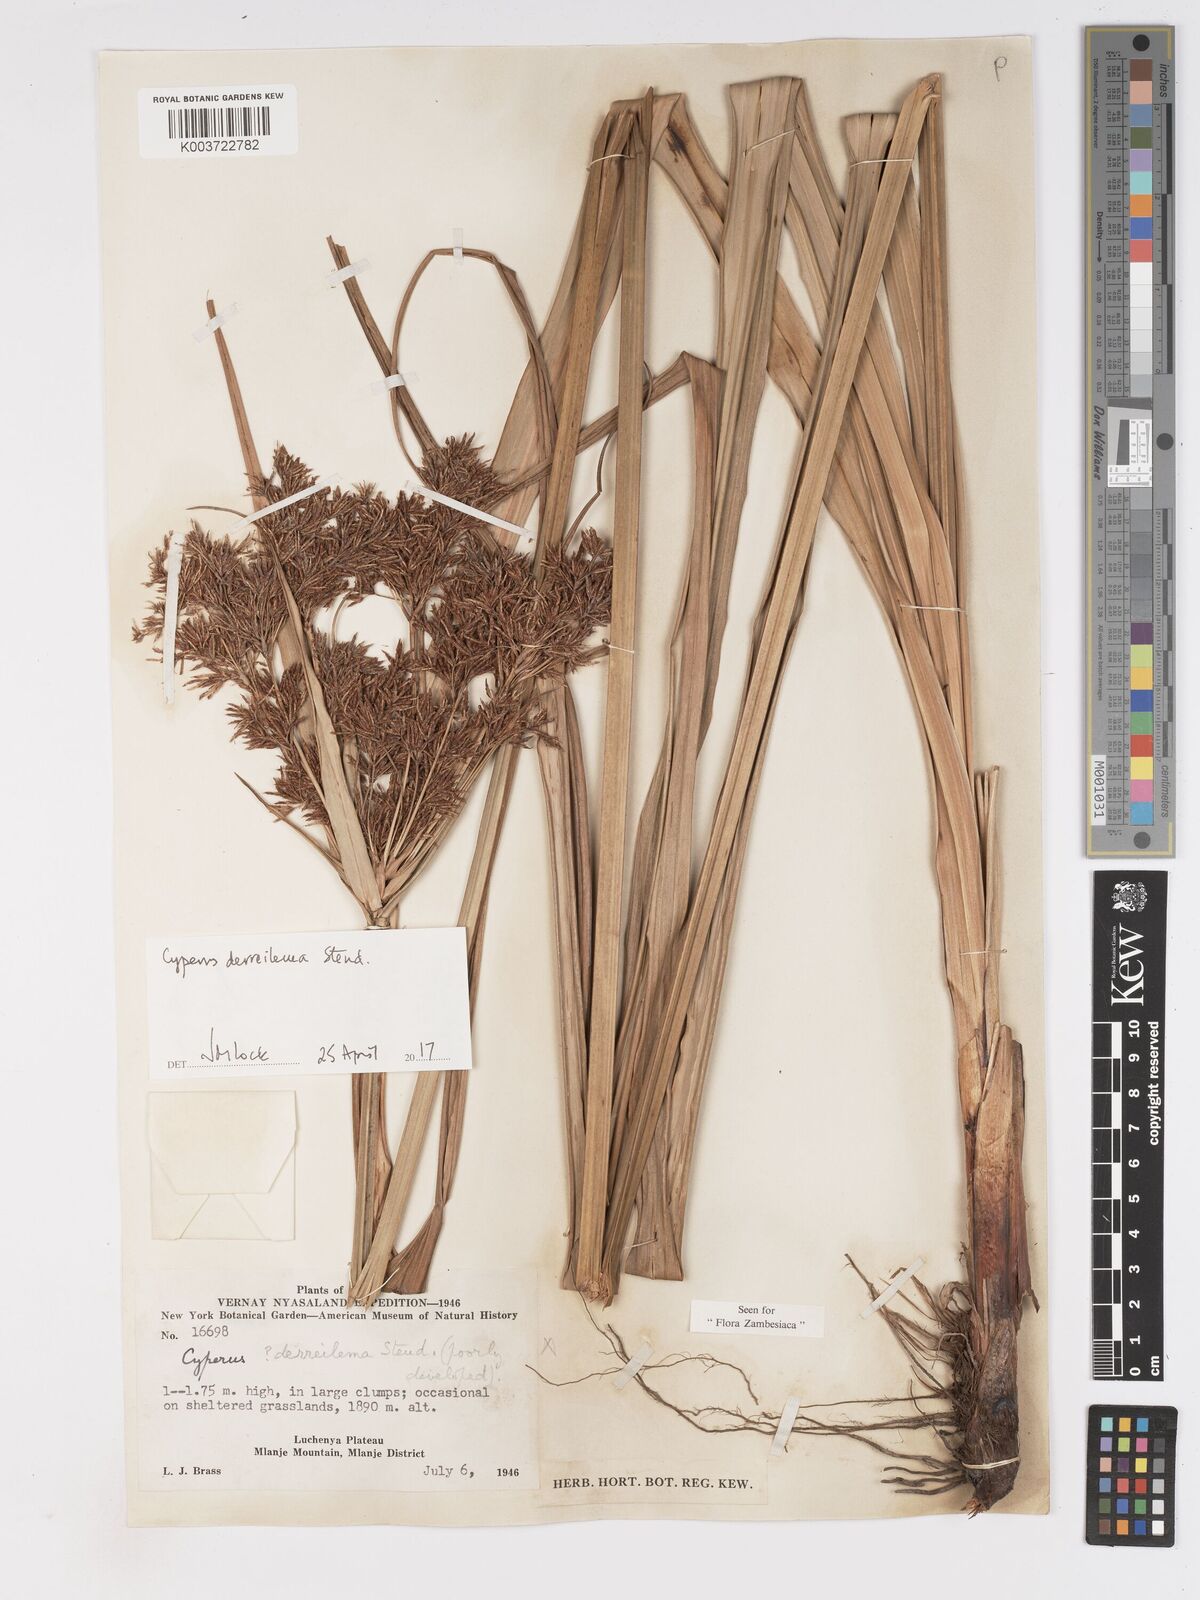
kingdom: Plantae
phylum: Tracheophyta
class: Liliopsida
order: Poales
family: Cyperaceae
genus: Cyperus
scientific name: Cyperus derreilema
